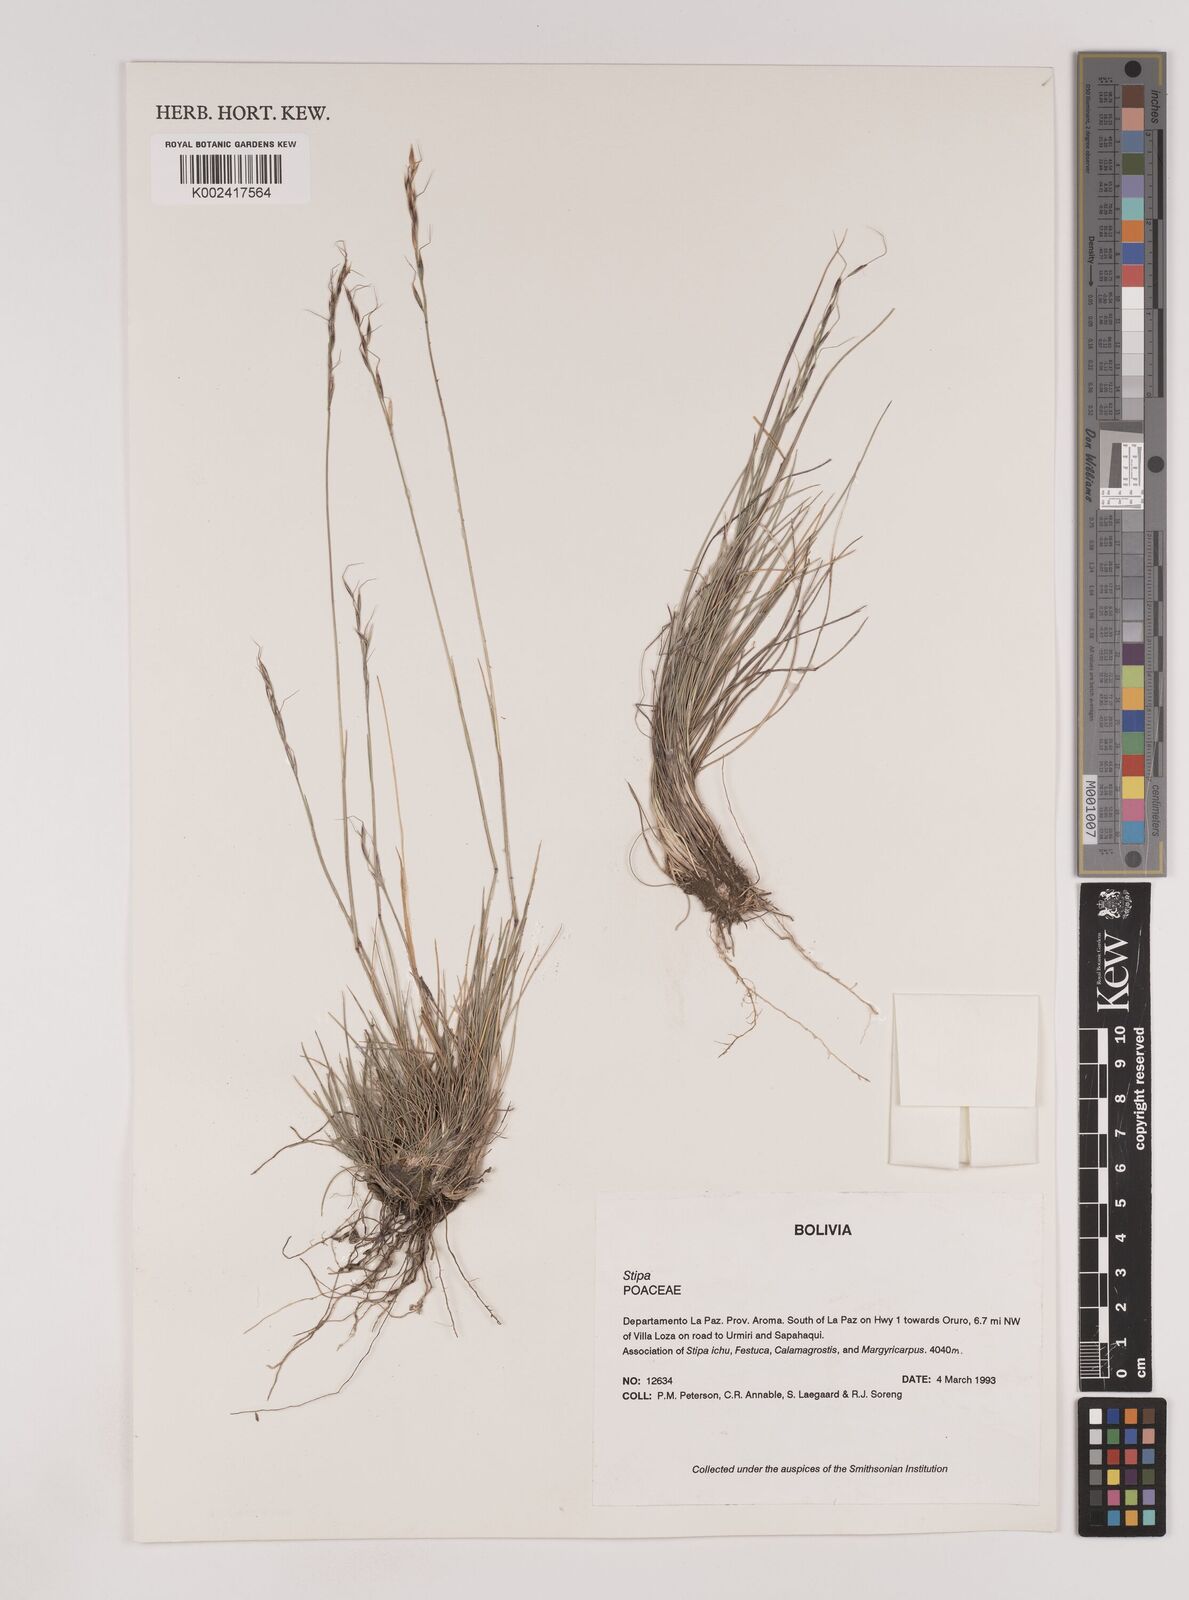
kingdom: Plantae
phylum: Tracheophyta
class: Liliopsida
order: Poales
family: Poaceae
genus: Nassella
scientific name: Nassella rupestris
